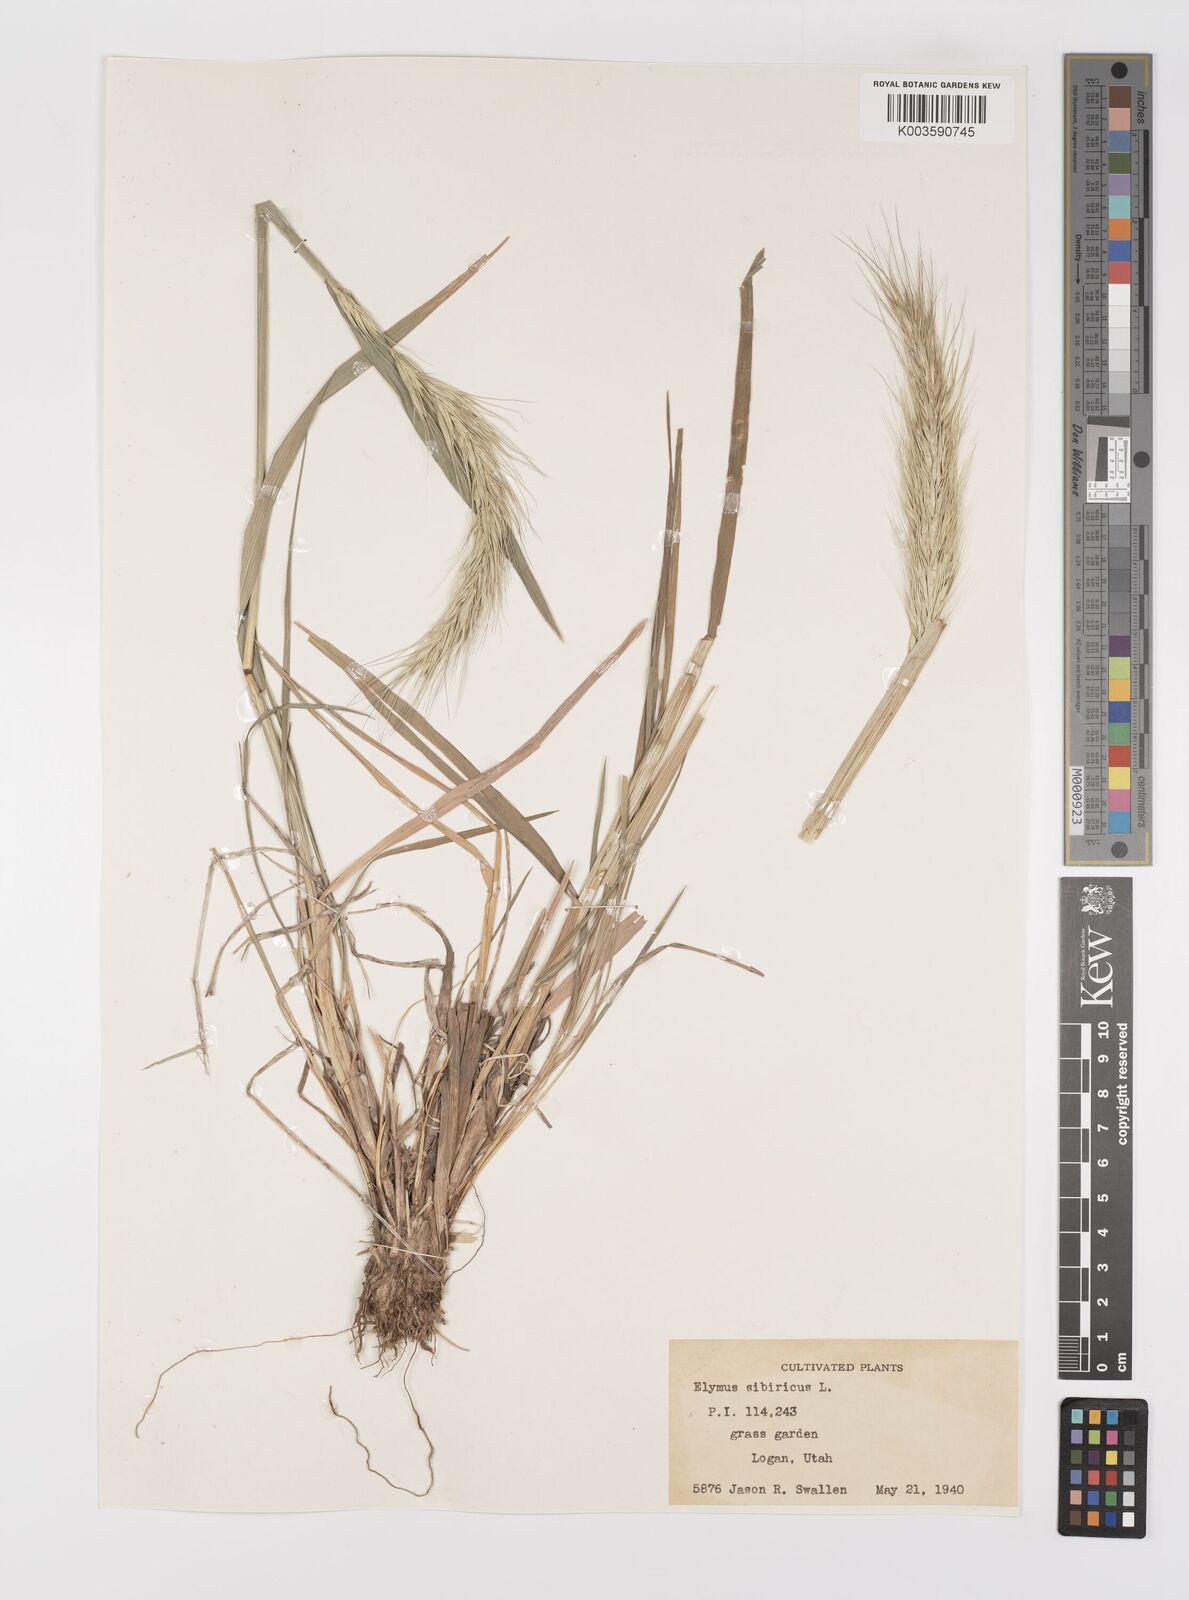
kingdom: Plantae
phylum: Tracheophyta
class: Liliopsida
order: Poales
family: Poaceae
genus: Elymus
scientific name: Elymus sibiricus
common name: Siberian wildrye
